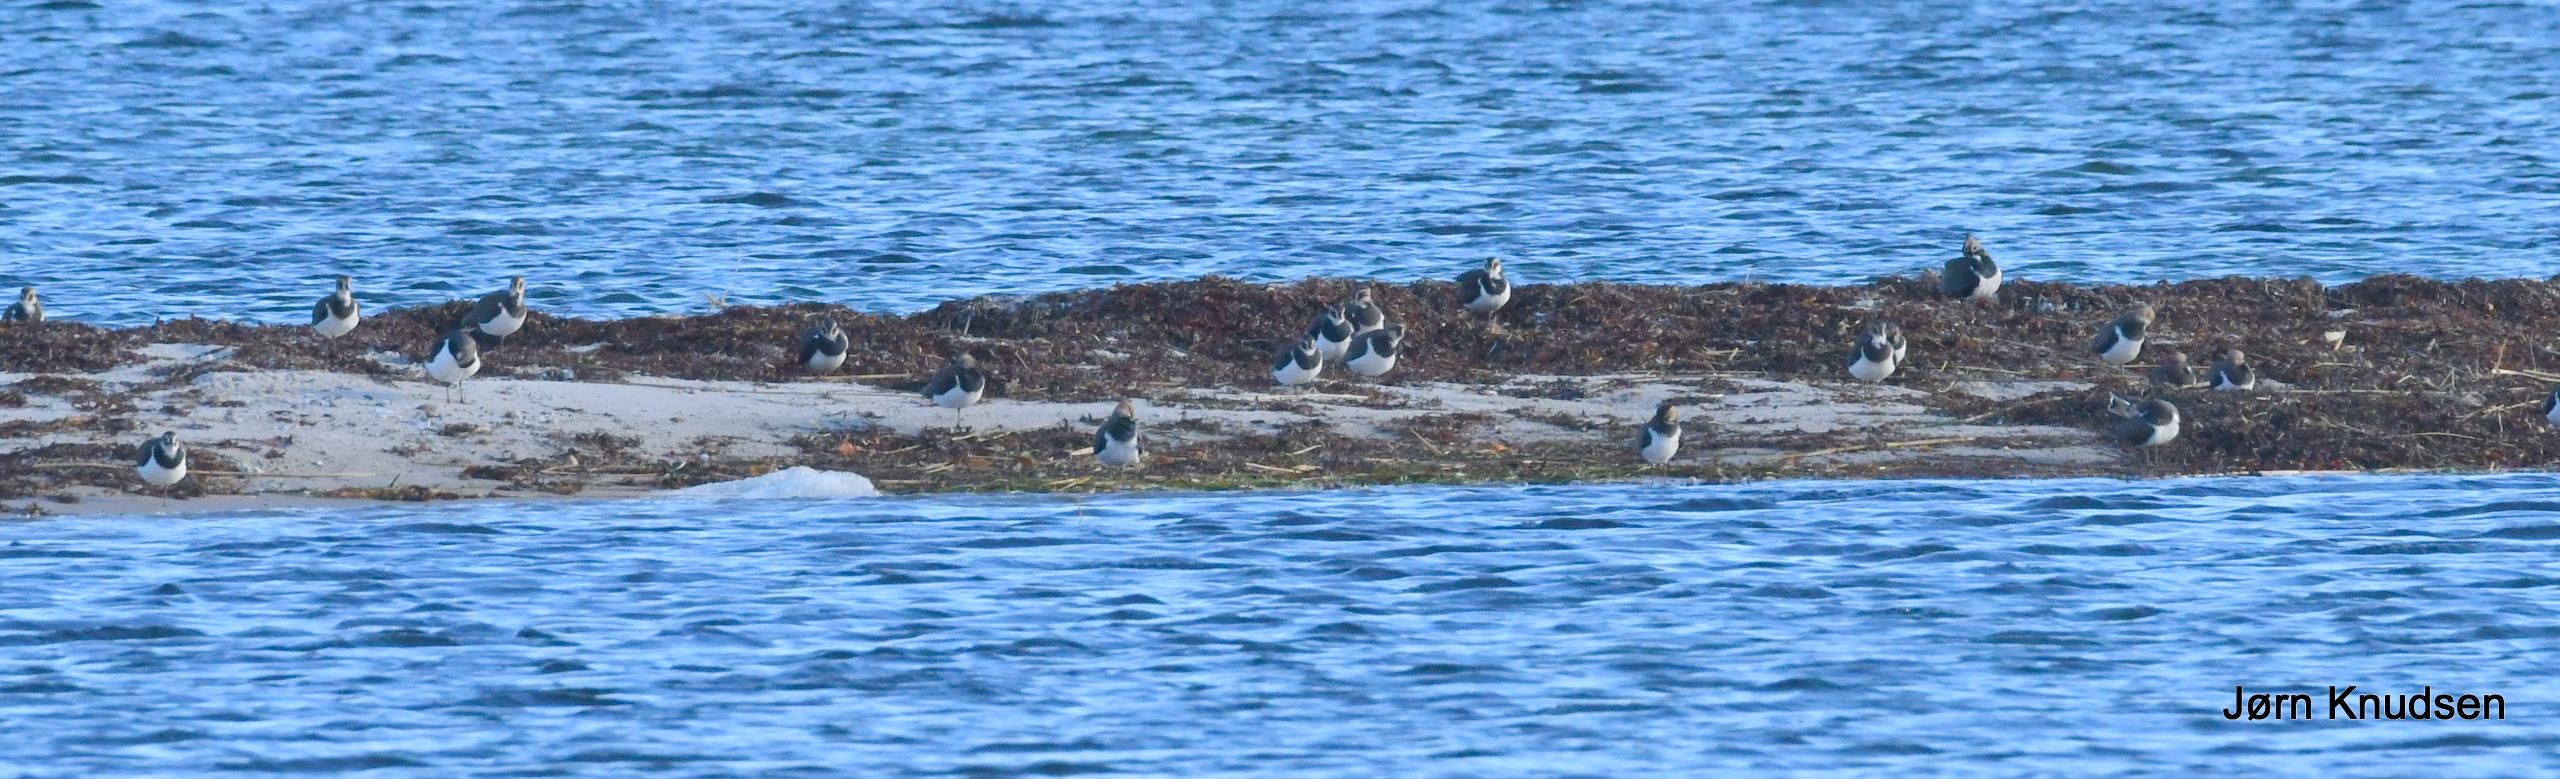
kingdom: Animalia
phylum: Chordata
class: Aves
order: Charadriiformes
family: Charadriidae
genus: Vanellus
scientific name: Vanellus vanellus
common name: Vibe
